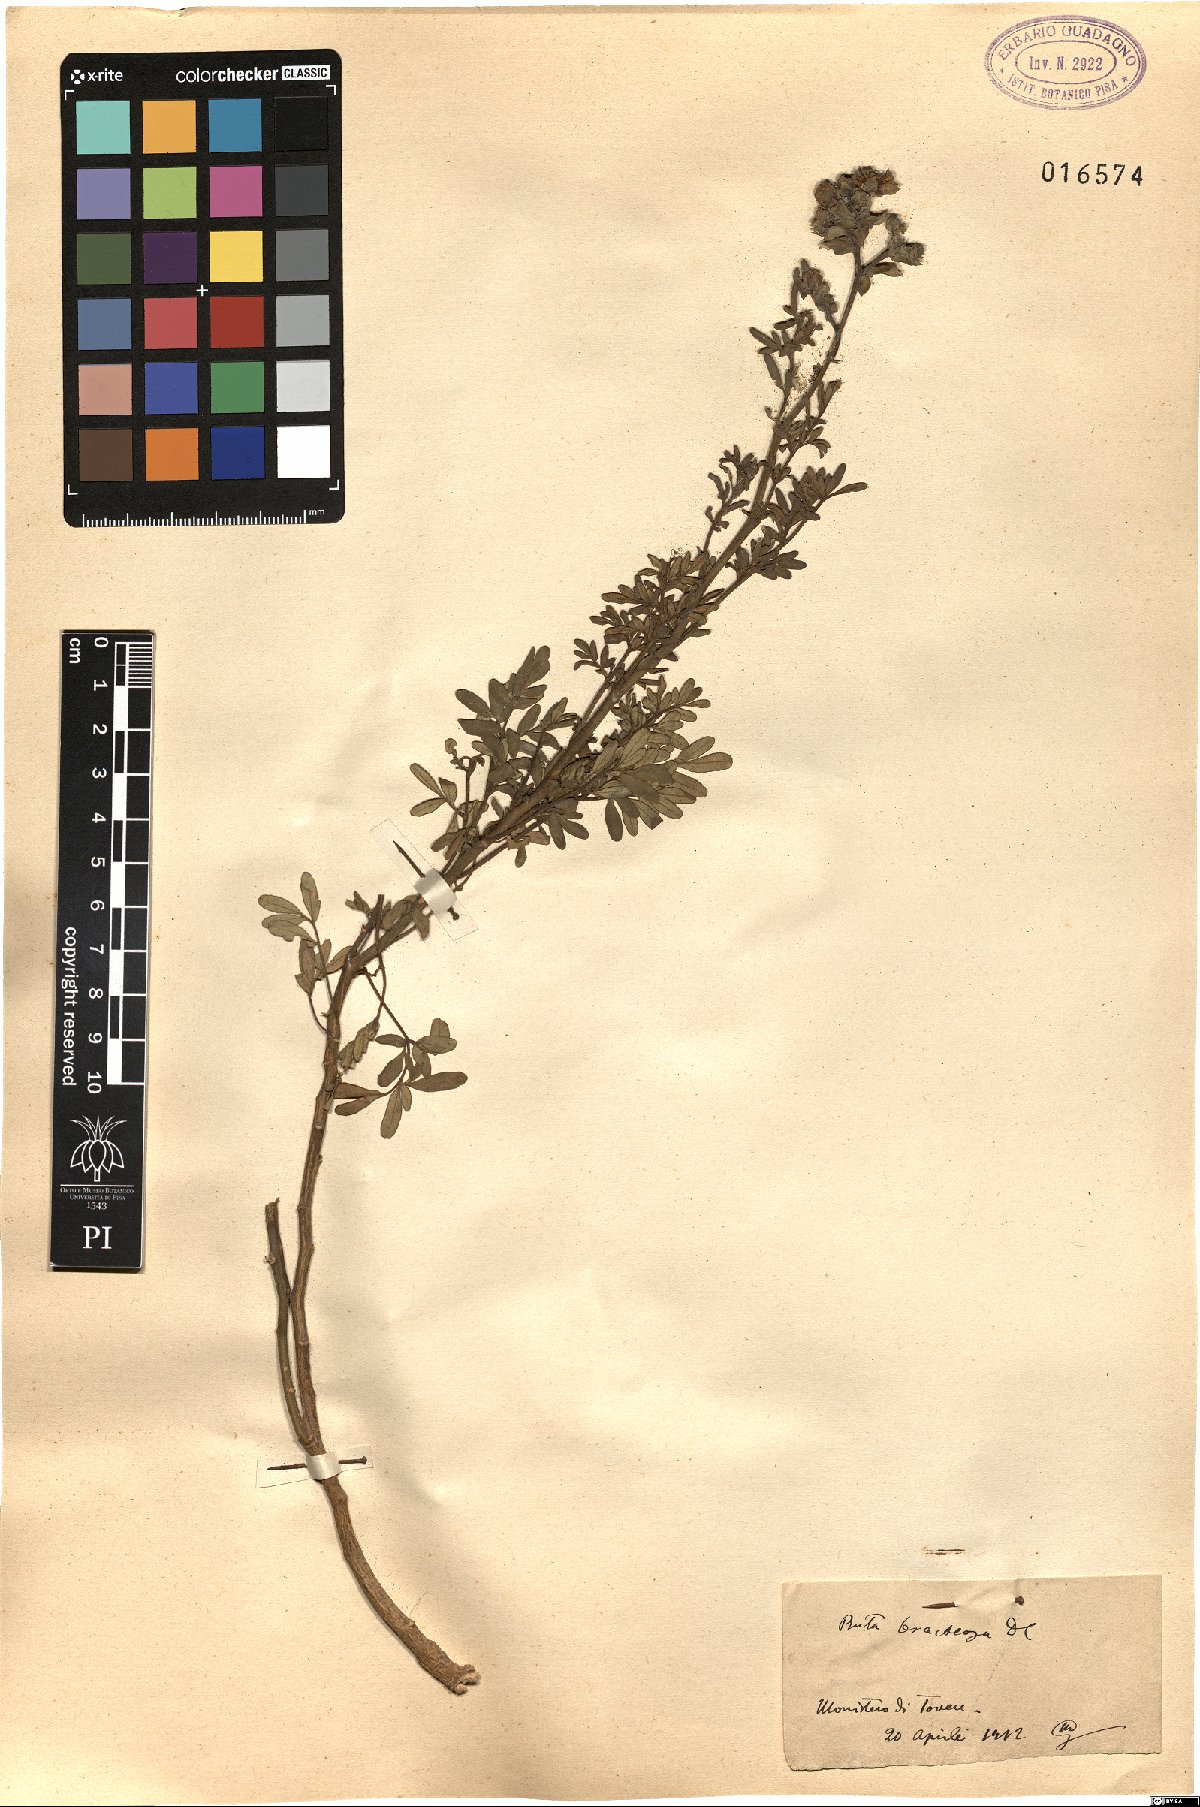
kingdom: Plantae
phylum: Tracheophyta
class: Magnoliopsida
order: Sapindales
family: Rutaceae
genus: Ruta
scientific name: Ruta chalepensis
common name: Fringed rue
